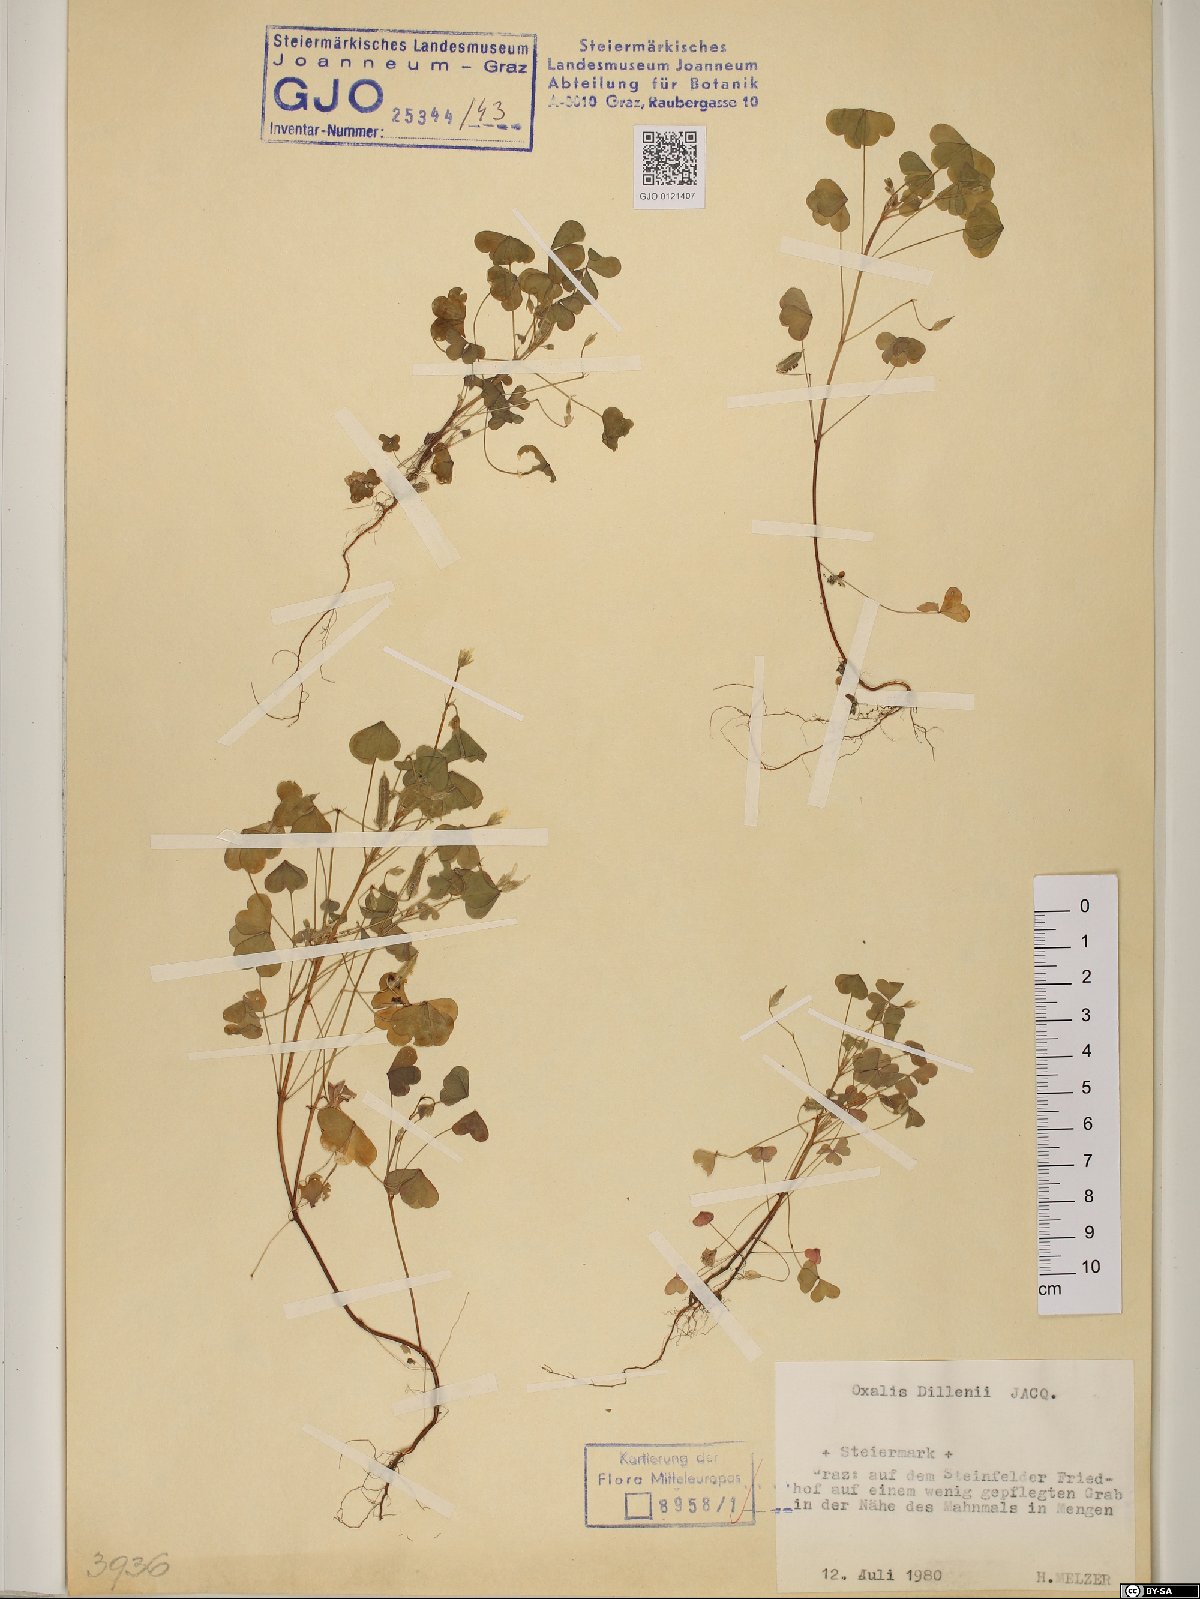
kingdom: Plantae
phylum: Tracheophyta
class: Magnoliopsida
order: Oxalidales
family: Oxalidaceae
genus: Oxalis
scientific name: Oxalis dillenii
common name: Sussex yellow-sorrel
